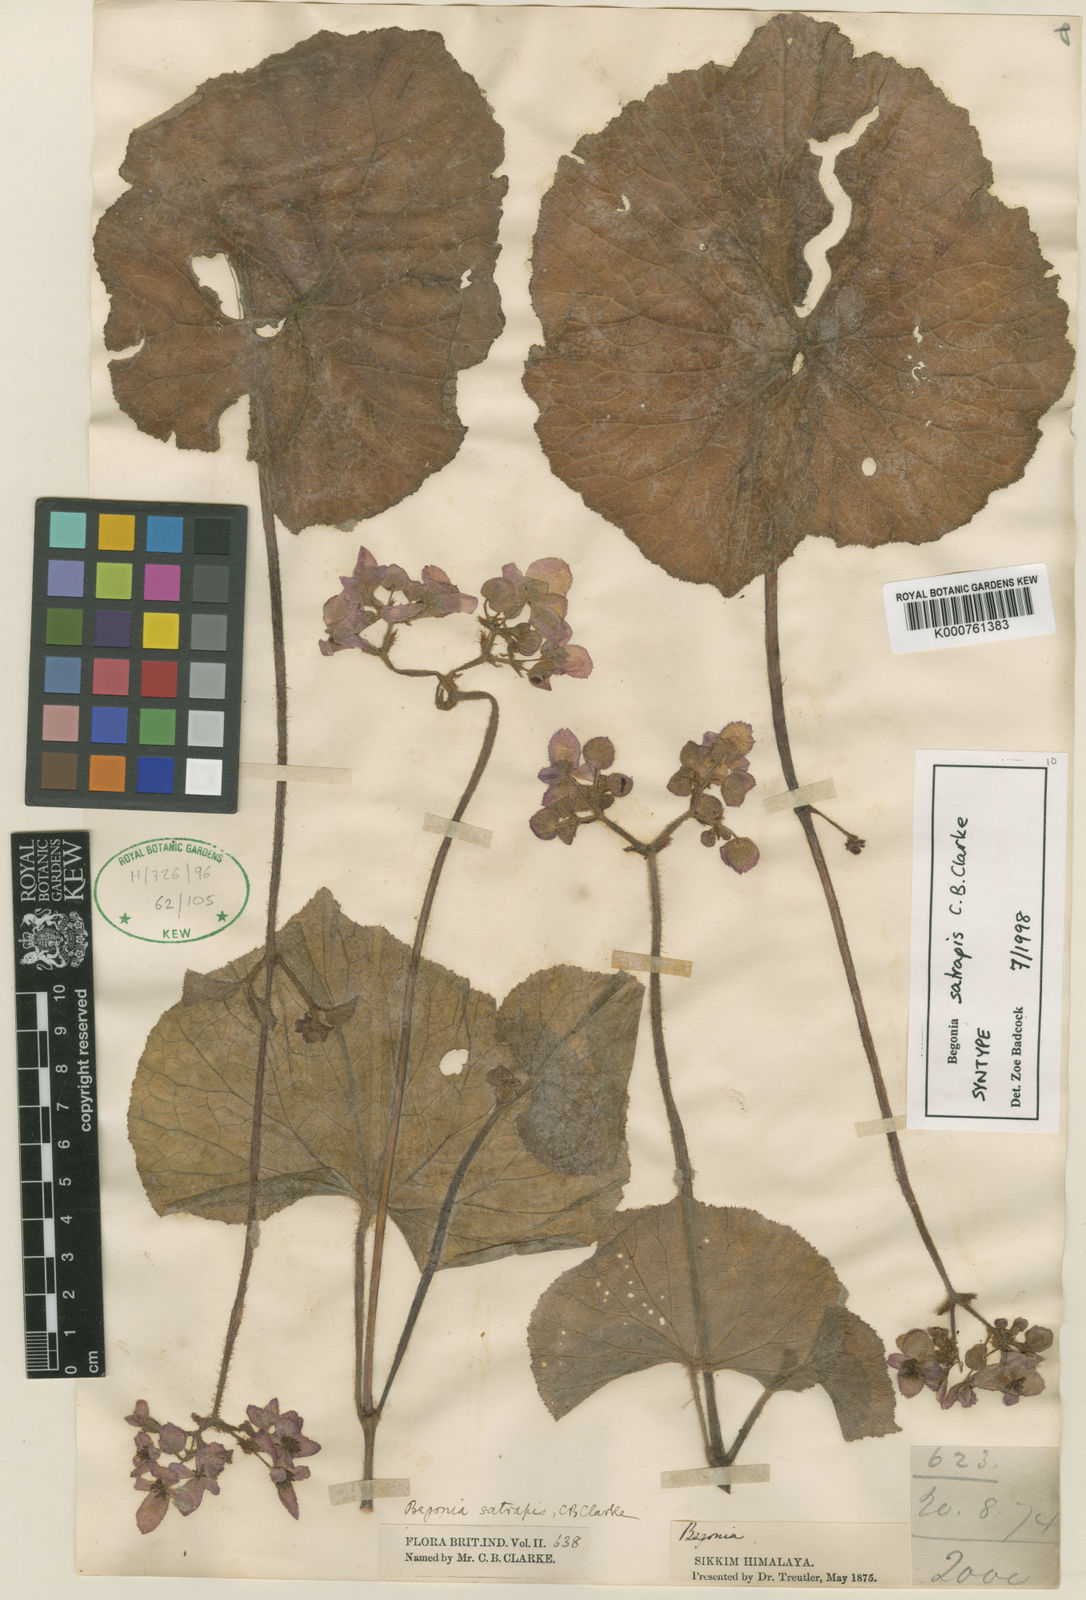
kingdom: Plantae
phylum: Tracheophyta
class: Magnoliopsida
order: Cucurbitales
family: Begoniaceae
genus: Begonia
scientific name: Begonia satrapis
